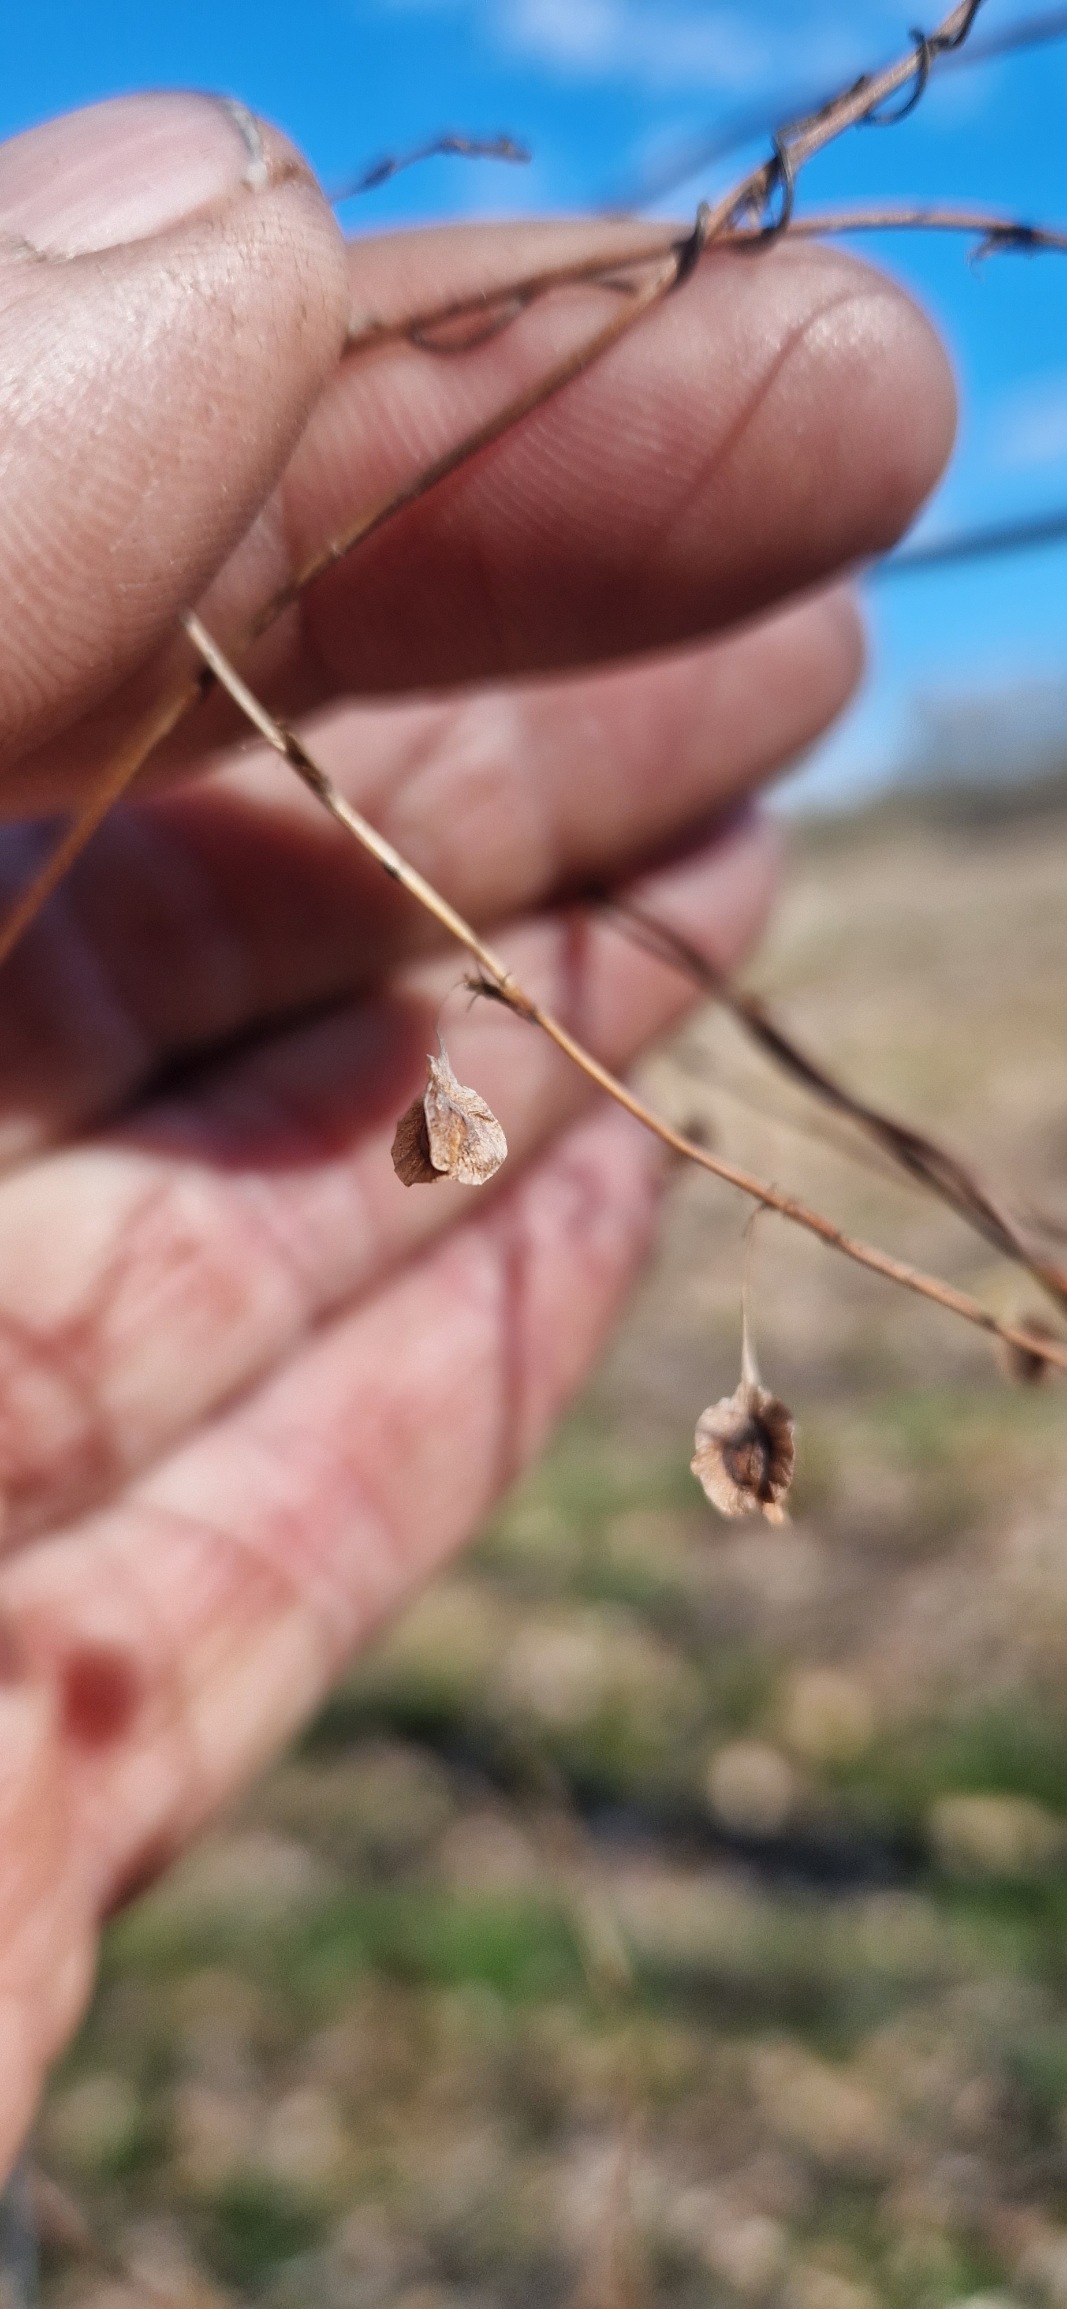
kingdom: Plantae
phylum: Tracheophyta
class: Magnoliopsida
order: Caryophyllales
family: Polygonaceae
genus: Fallopia
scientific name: Fallopia dumetorum
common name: Vinge-pileurt
